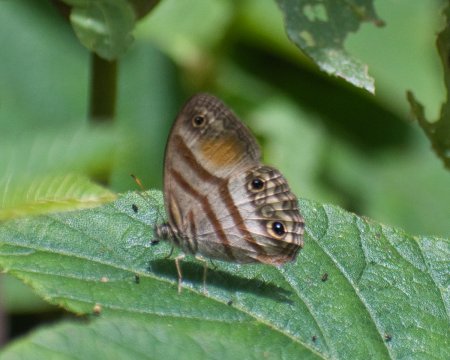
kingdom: Animalia
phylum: Arthropoda
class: Insecta
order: Lepidoptera
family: Nymphalidae
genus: Euptychia
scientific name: Euptychia Cissia pseudoconfusa
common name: Gold-stained Satyr
